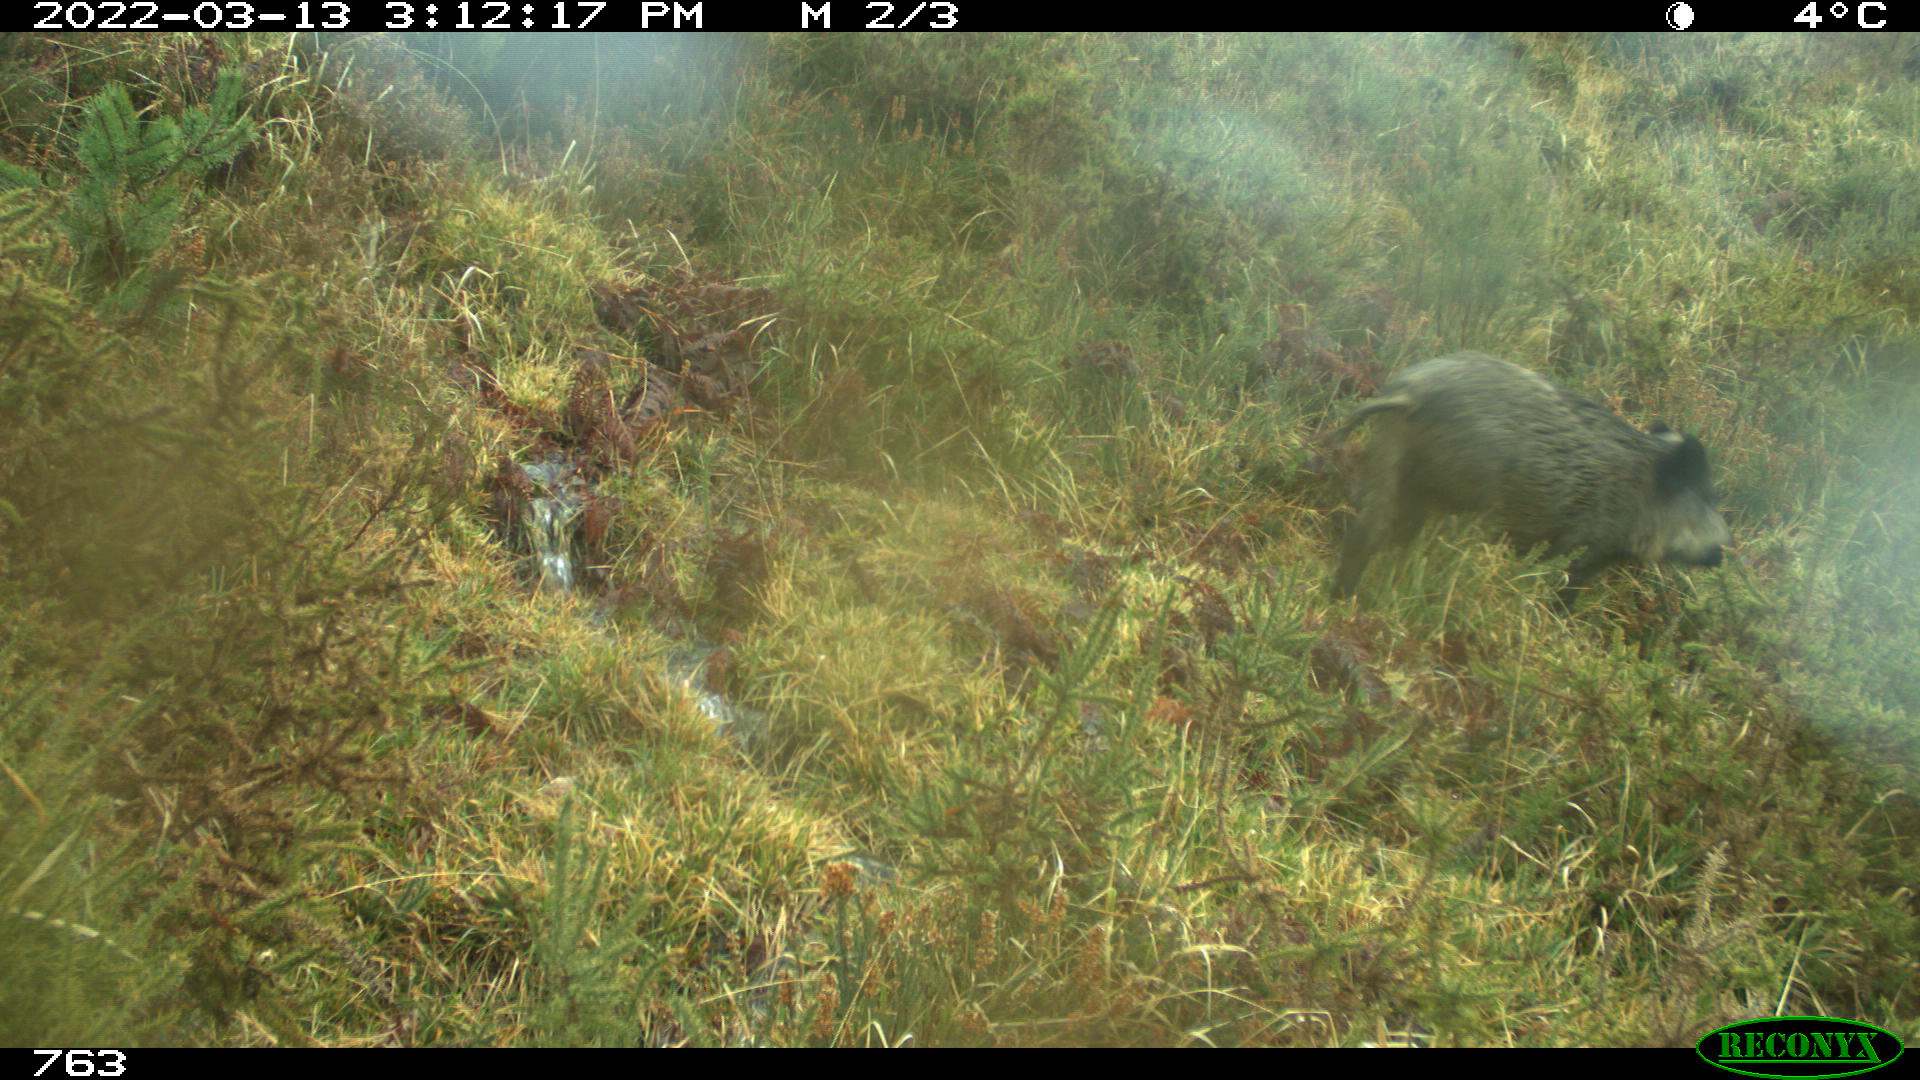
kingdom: Animalia
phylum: Chordata
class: Mammalia
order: Artiodactyla
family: Suidae
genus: Sus
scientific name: Sus scrofa
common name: Wild boar
